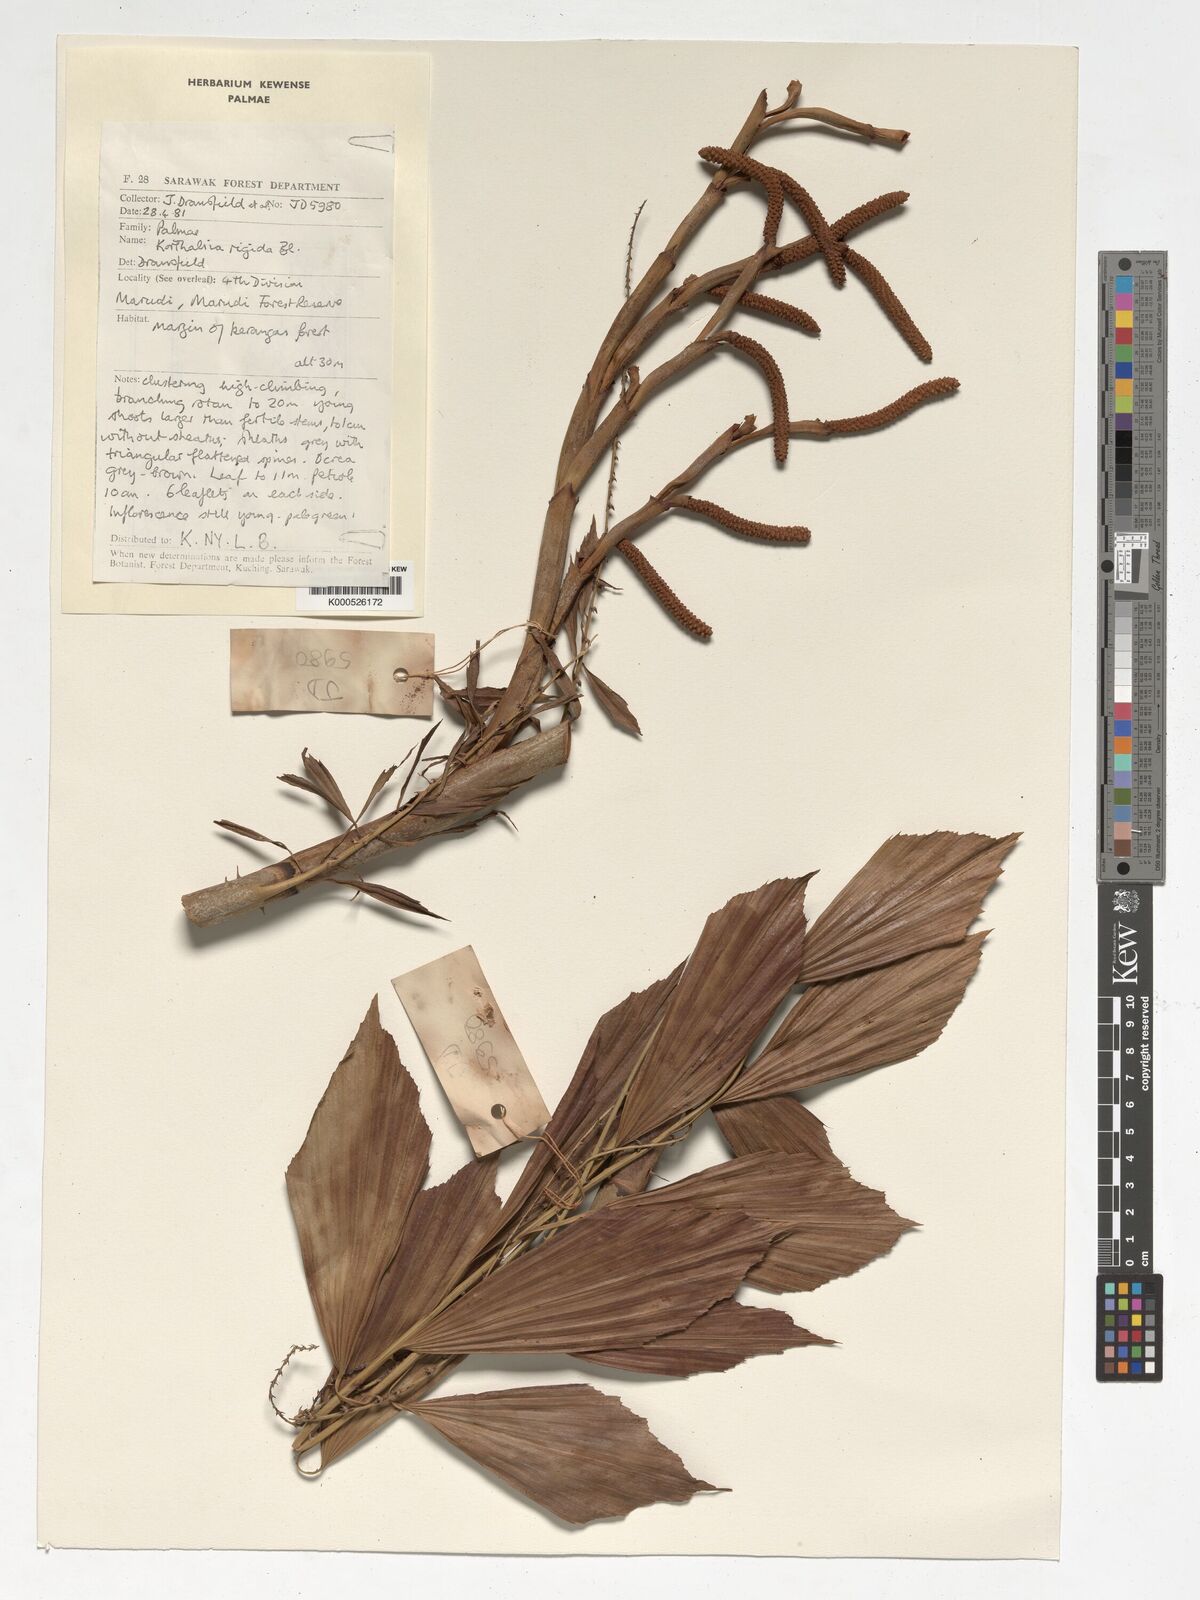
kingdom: Plantae
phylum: Tracheophyta
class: Liliopsida
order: Arecales
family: Arecaceae
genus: Korthalsia
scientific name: Korthalsia rigida
